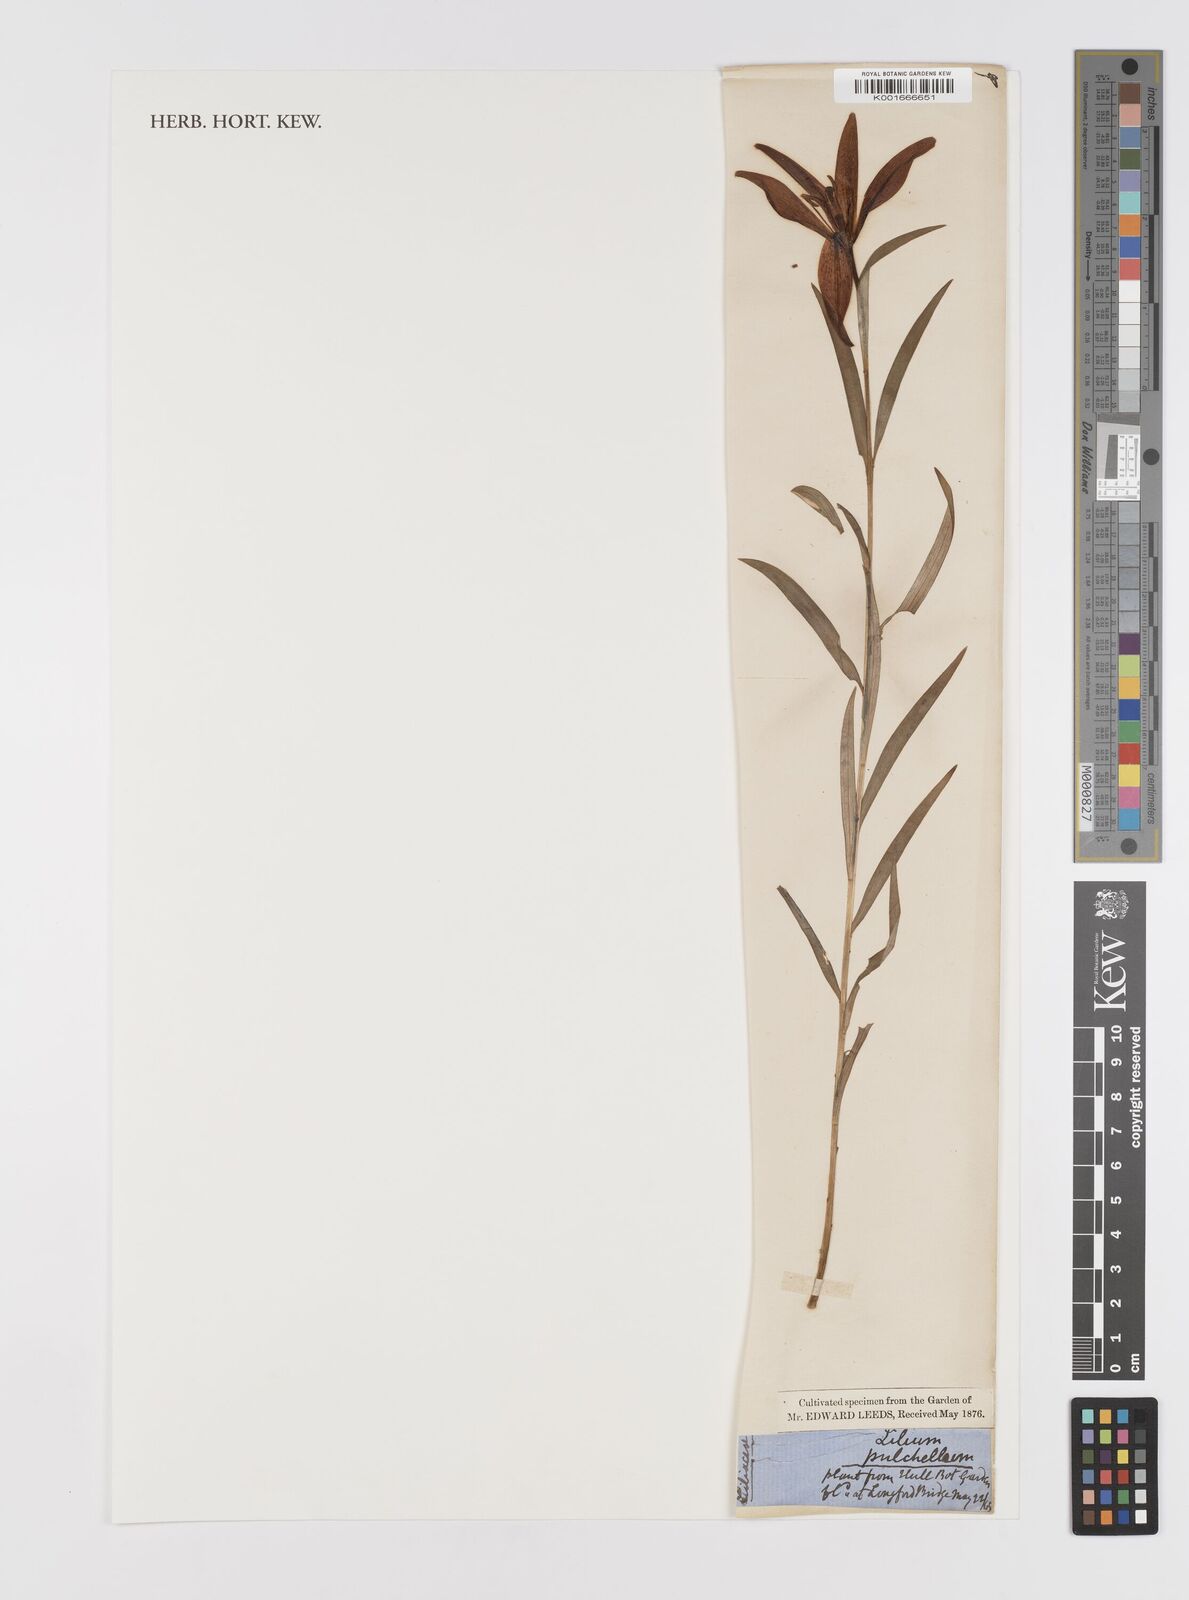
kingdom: Plantae
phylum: Tracheophyta
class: Liliopsida
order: Liliales
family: Liliaceae
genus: Lilium
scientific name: Lilium concolor
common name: Morning-star lily
